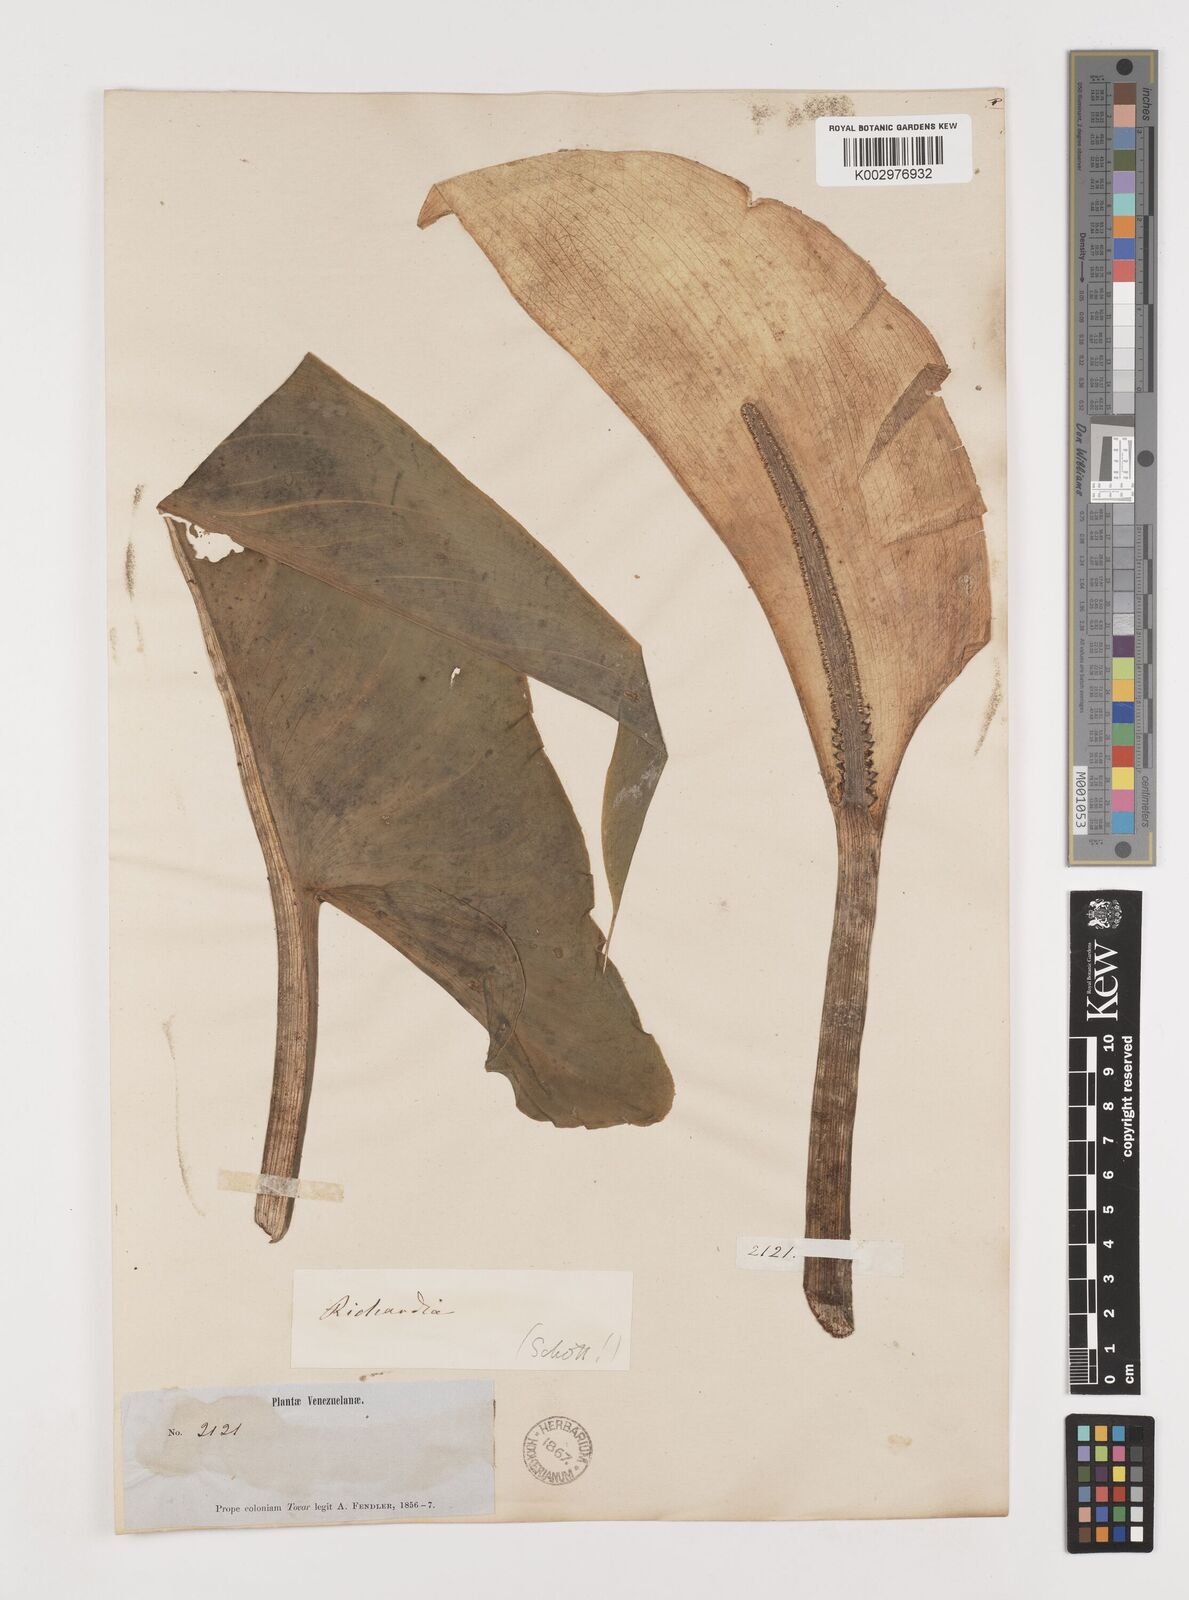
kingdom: Plantae
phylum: Tracheophyta
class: Liliopsida
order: Alismatales
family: Araceae
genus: Zantedeschia
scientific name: Zantedeschia aethiopica
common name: Altar-lily
